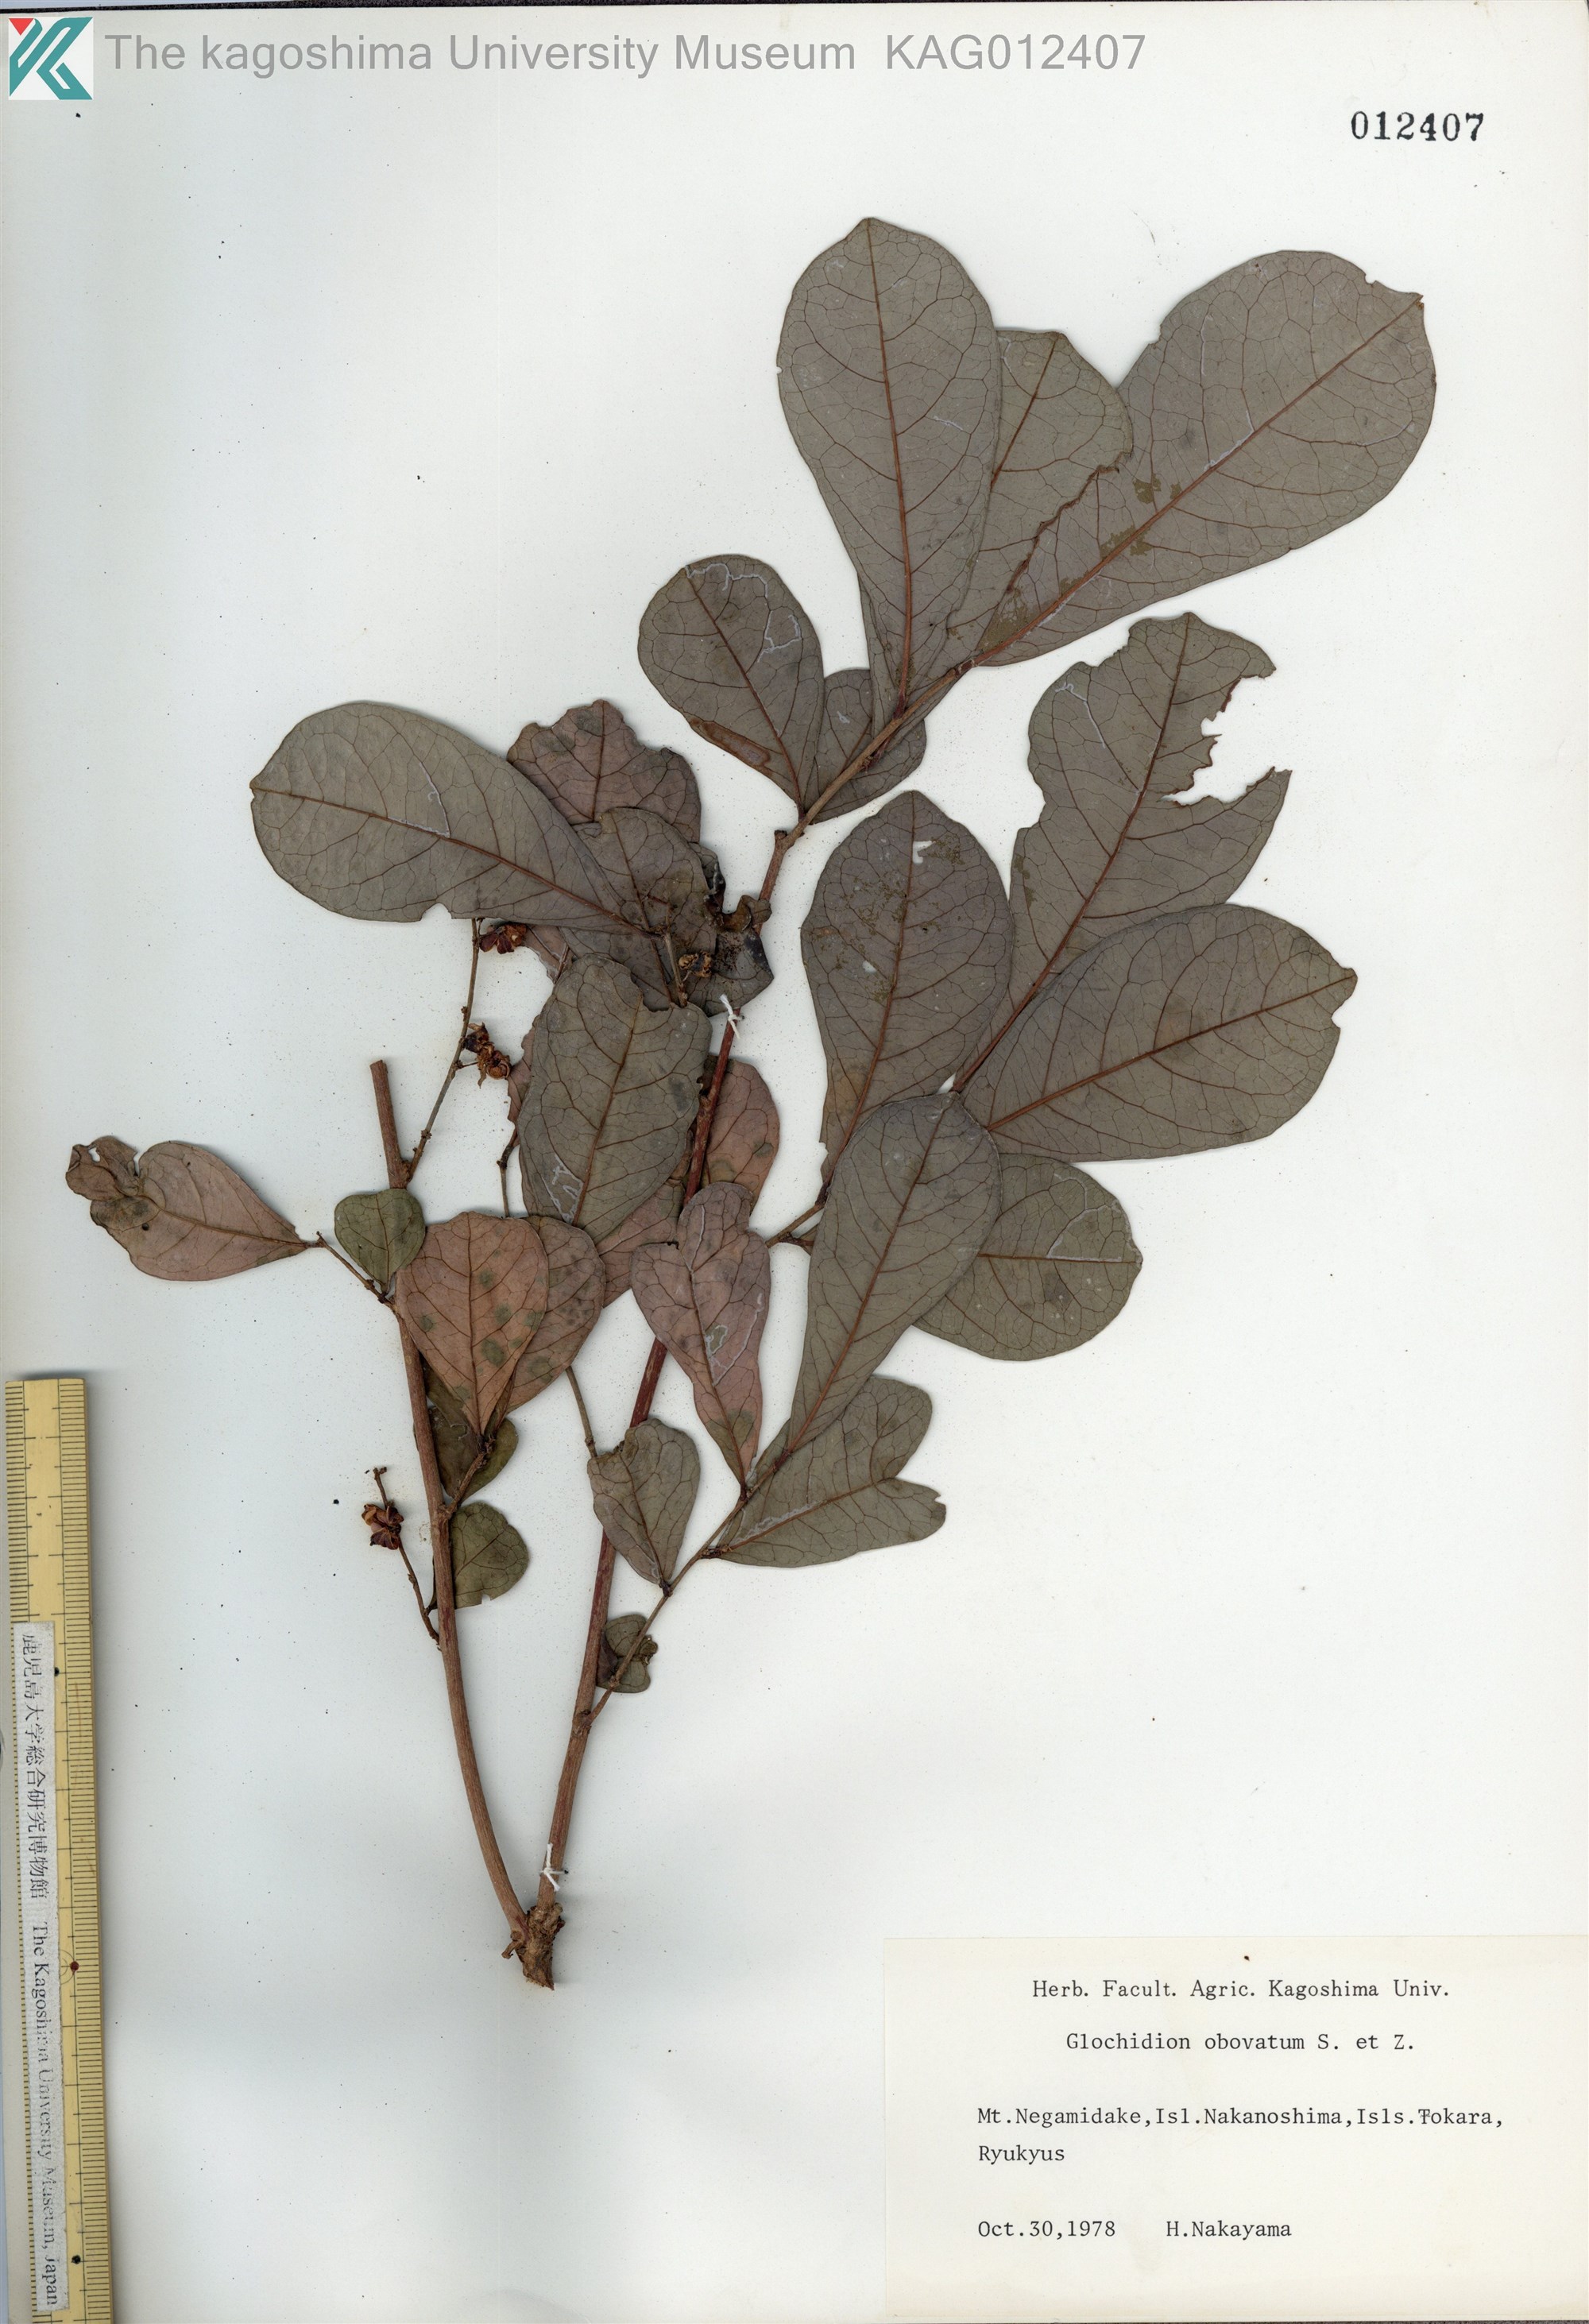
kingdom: Plantae
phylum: Tracheophyta
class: Magnoliopsida
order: Malpighiales
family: Phyllanthaceae
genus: Glochidion
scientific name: Glochidion obovatum
